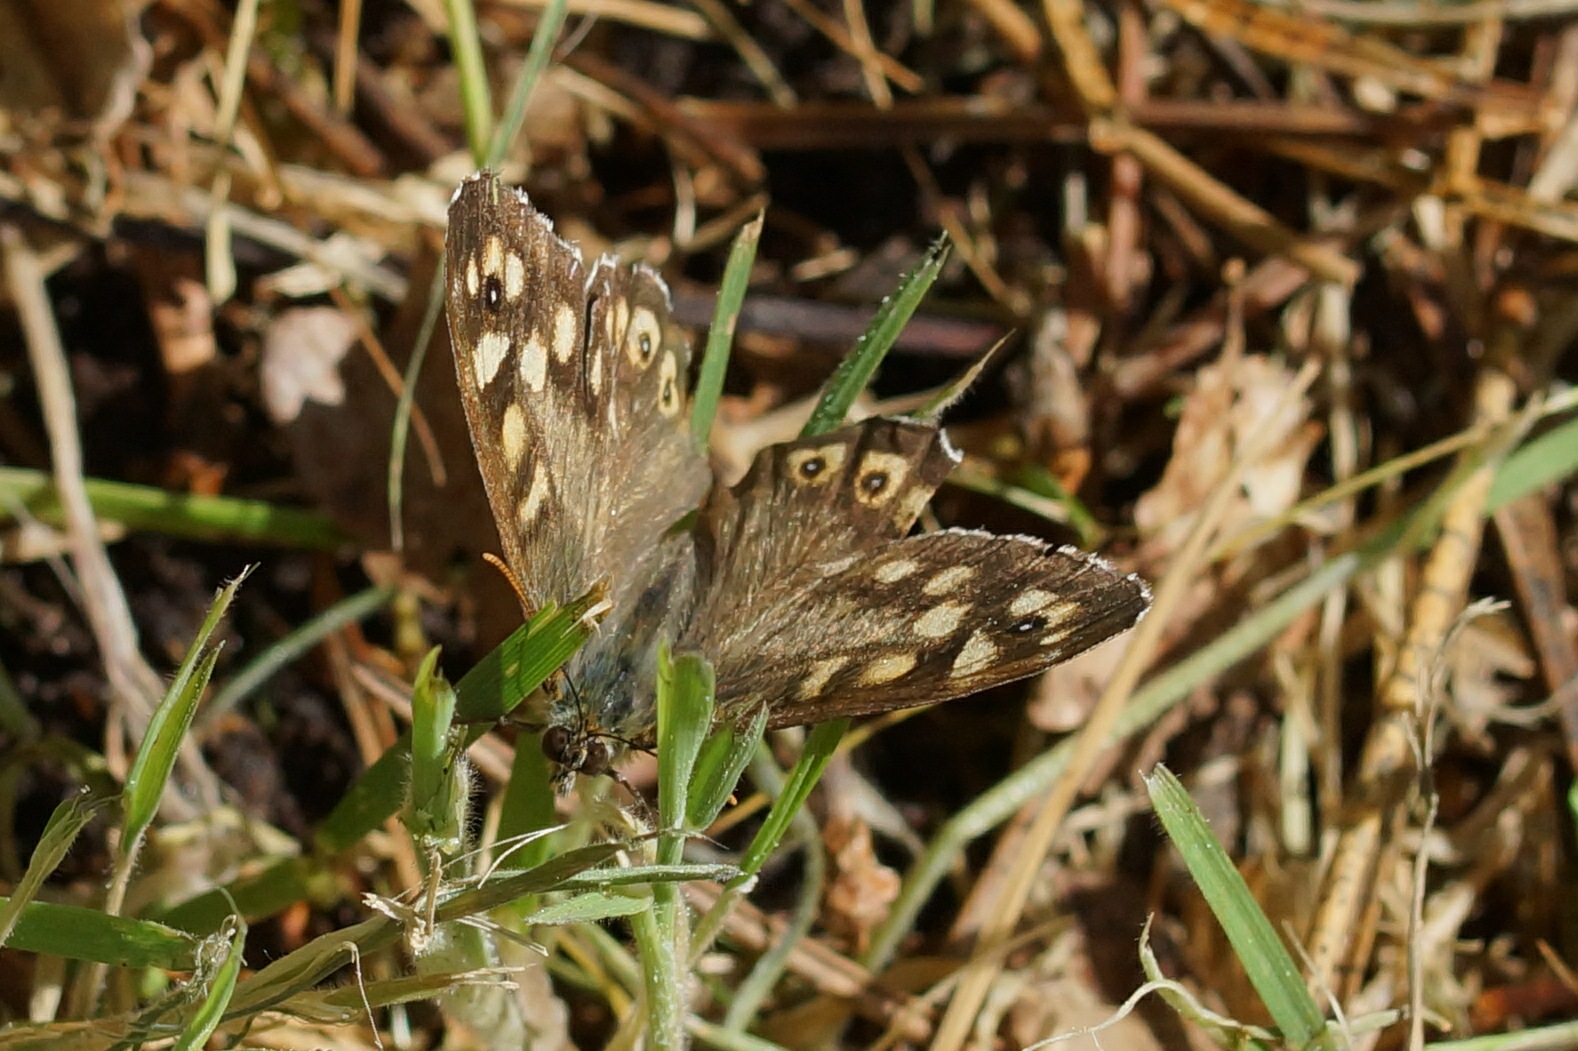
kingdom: Animalia
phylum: Arthropoda
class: Insecta
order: Lepidoptera
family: Nymphalidae
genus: Pararge
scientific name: Pararge aegeria
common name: Skovrandøje
